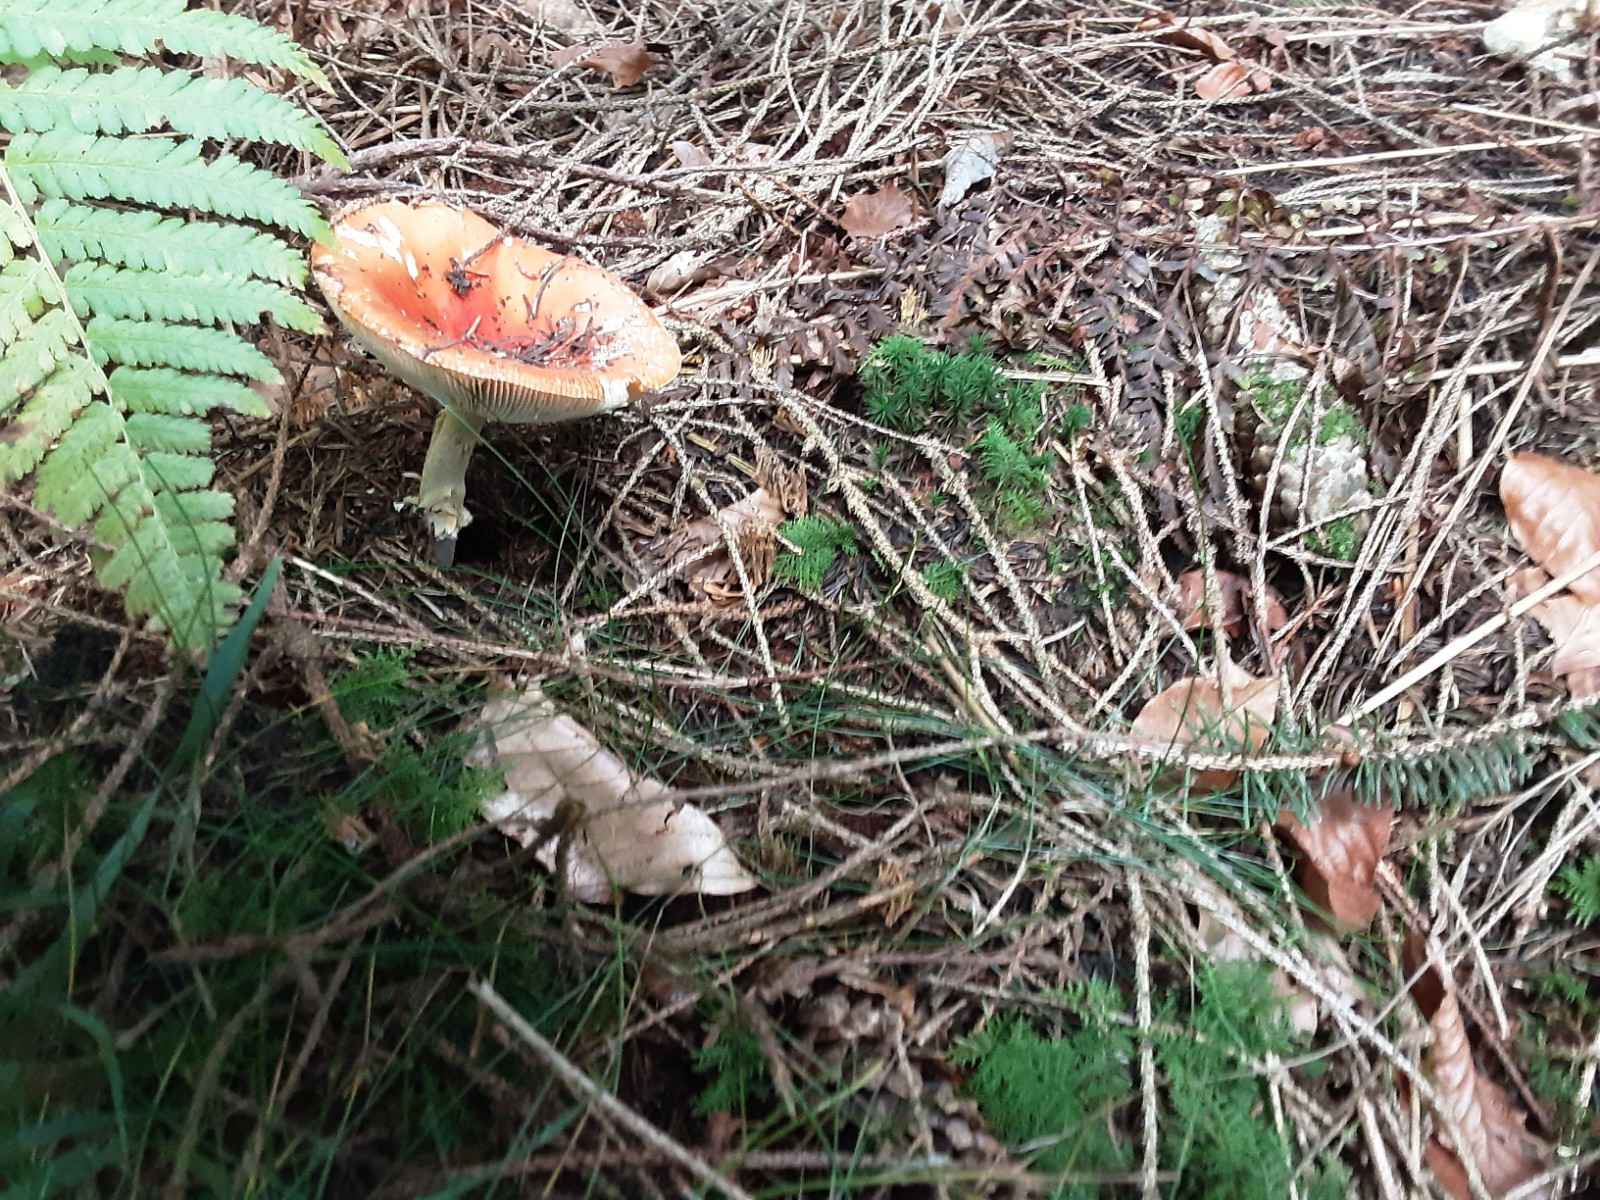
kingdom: Fungi
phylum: Basidiomycota
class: Agaricomycetes
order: Agaricales
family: Amanitaceae
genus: Amanita
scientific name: Amanita muscaria
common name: rød fluesvamp
